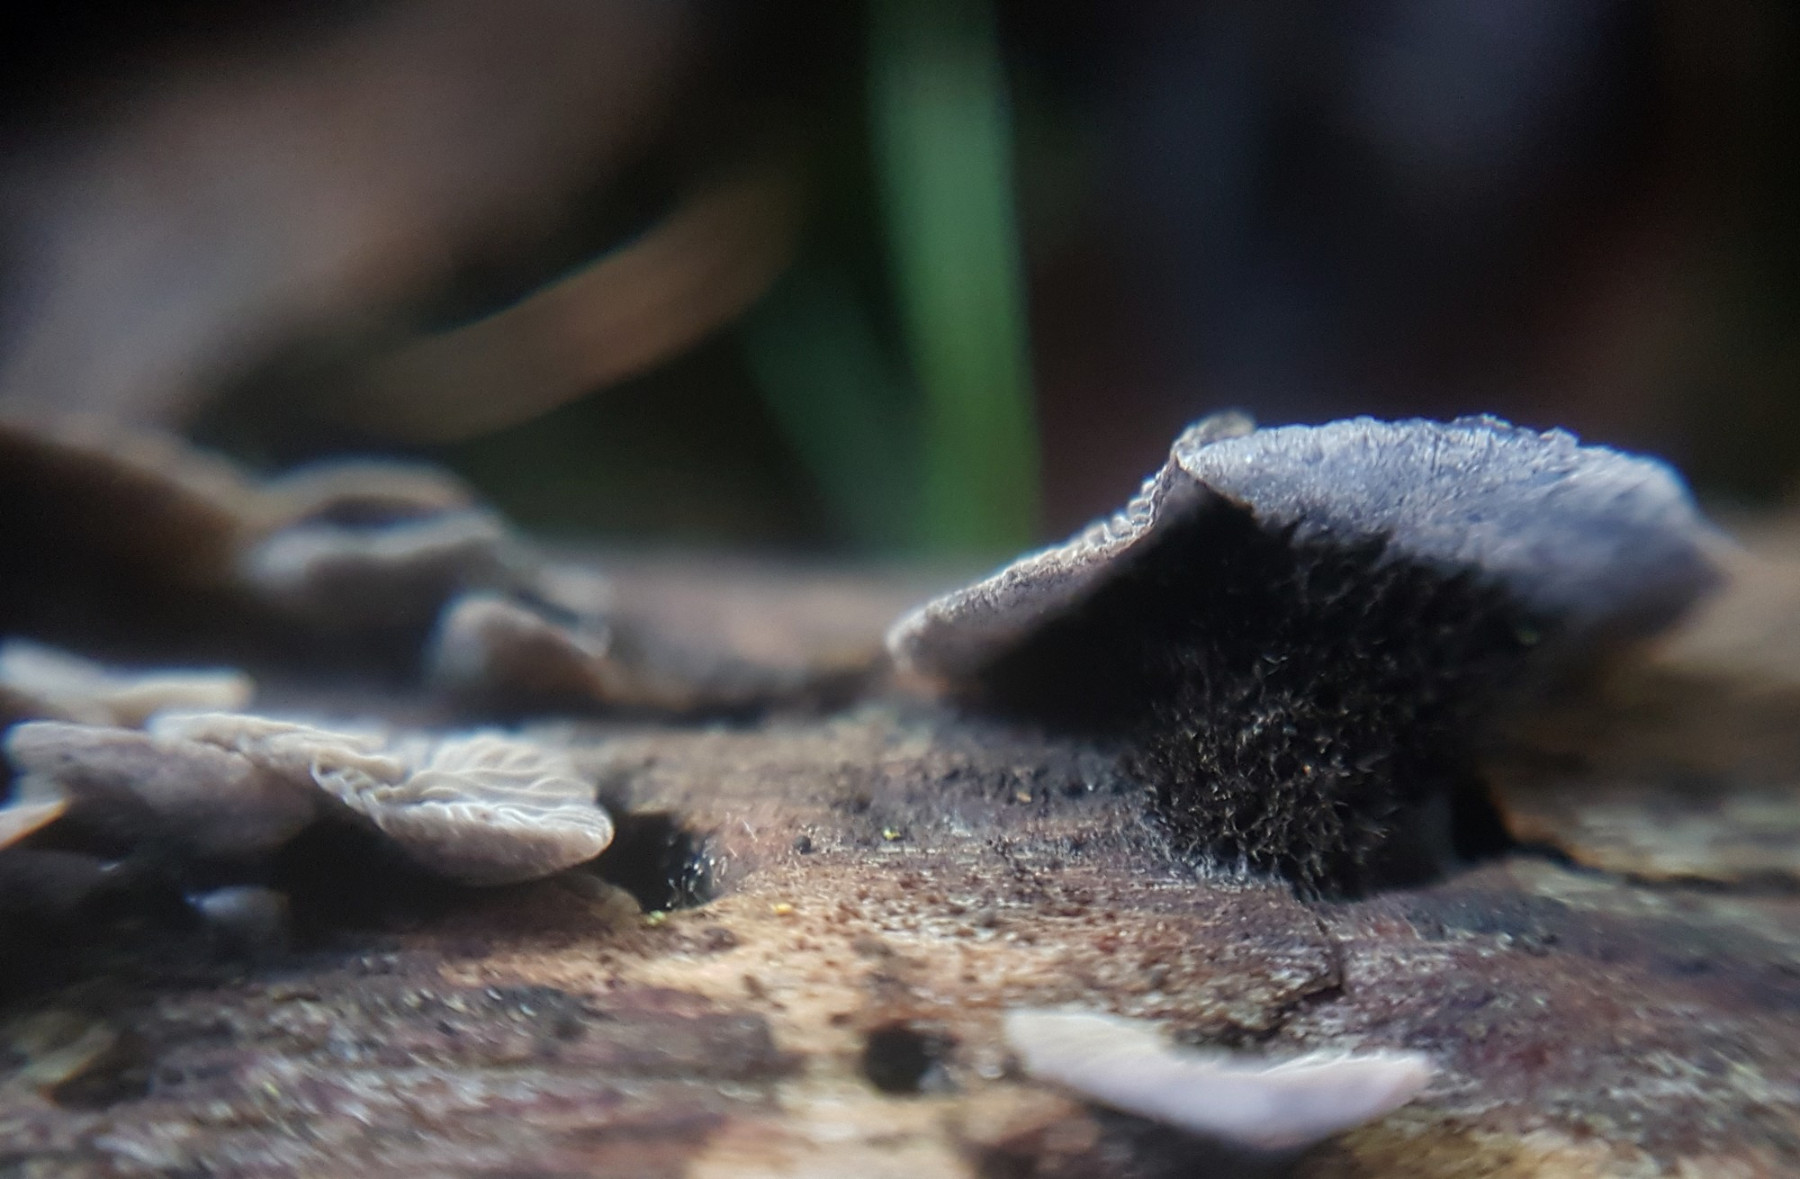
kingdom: Fungi
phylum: Basidiomycota
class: Agaricomycetes
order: Agaricales
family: Pleurotaceae
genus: Resupinatus
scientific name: Resupinatus trichotis
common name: mørkfiltet barkhat
